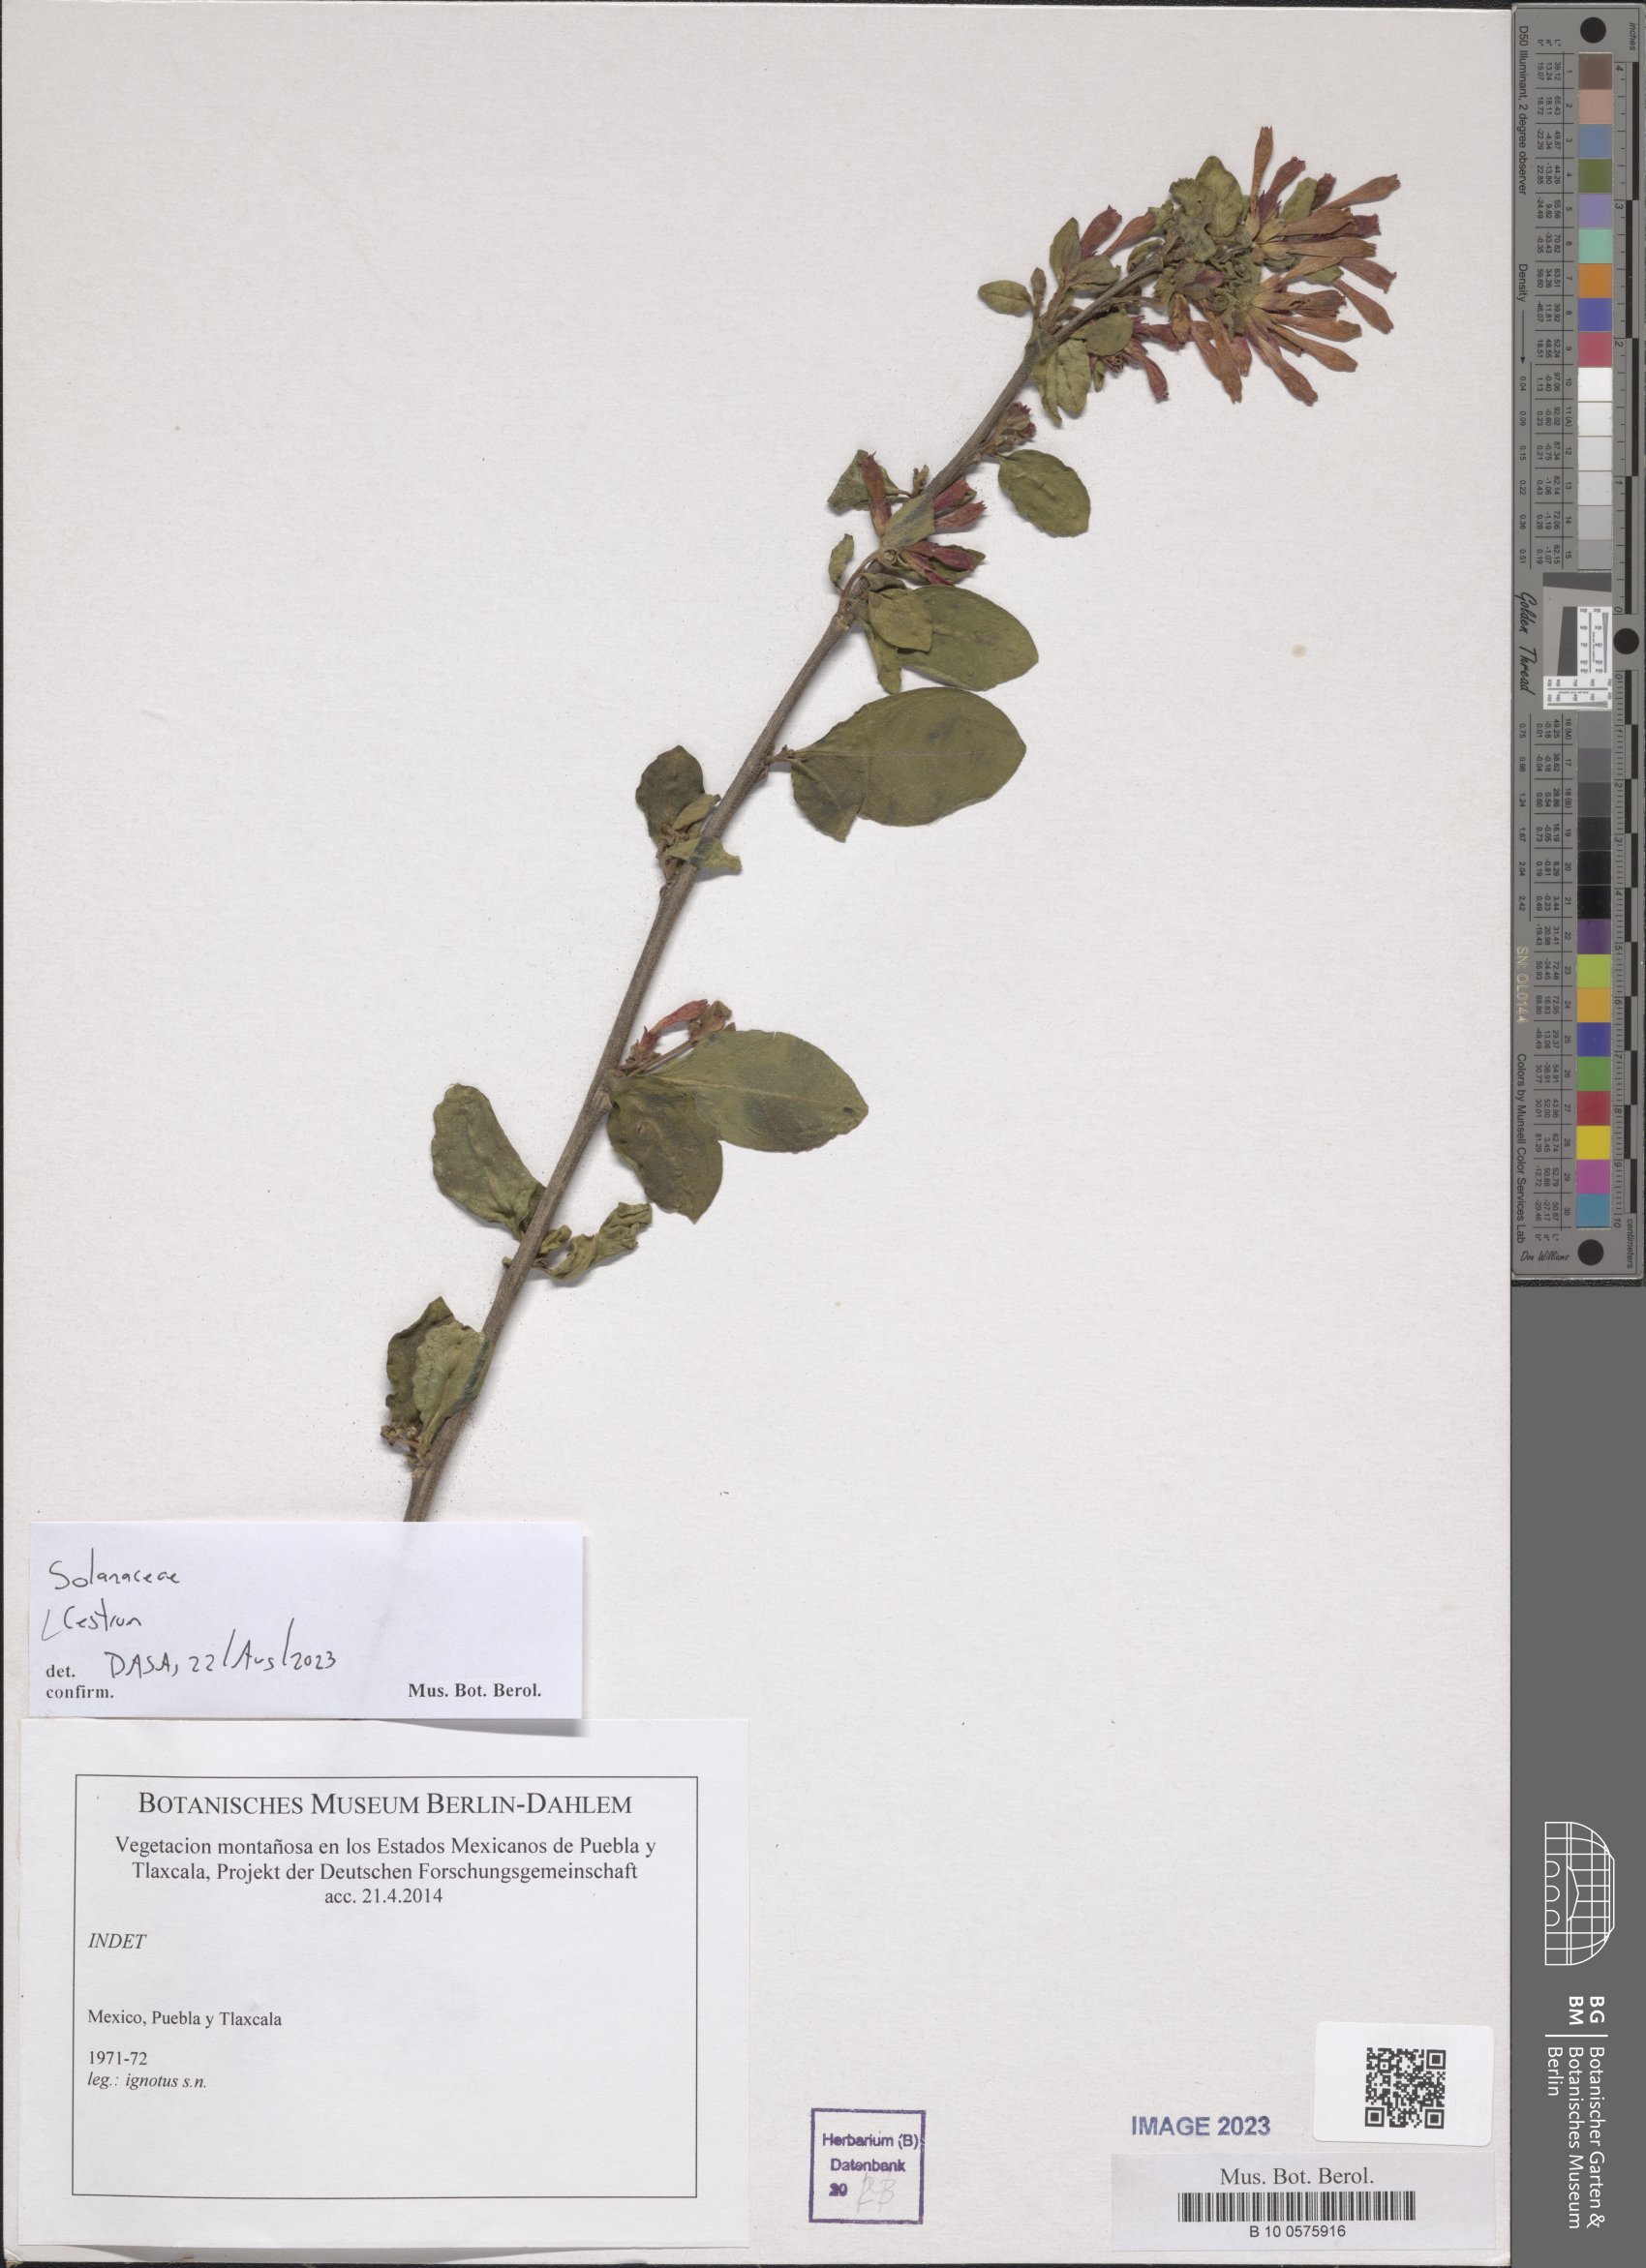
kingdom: Plantae
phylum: Tracheophyta
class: Magnoliopsida
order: Solanales
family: Solanaceae
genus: Cestrum
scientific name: Cestrum
